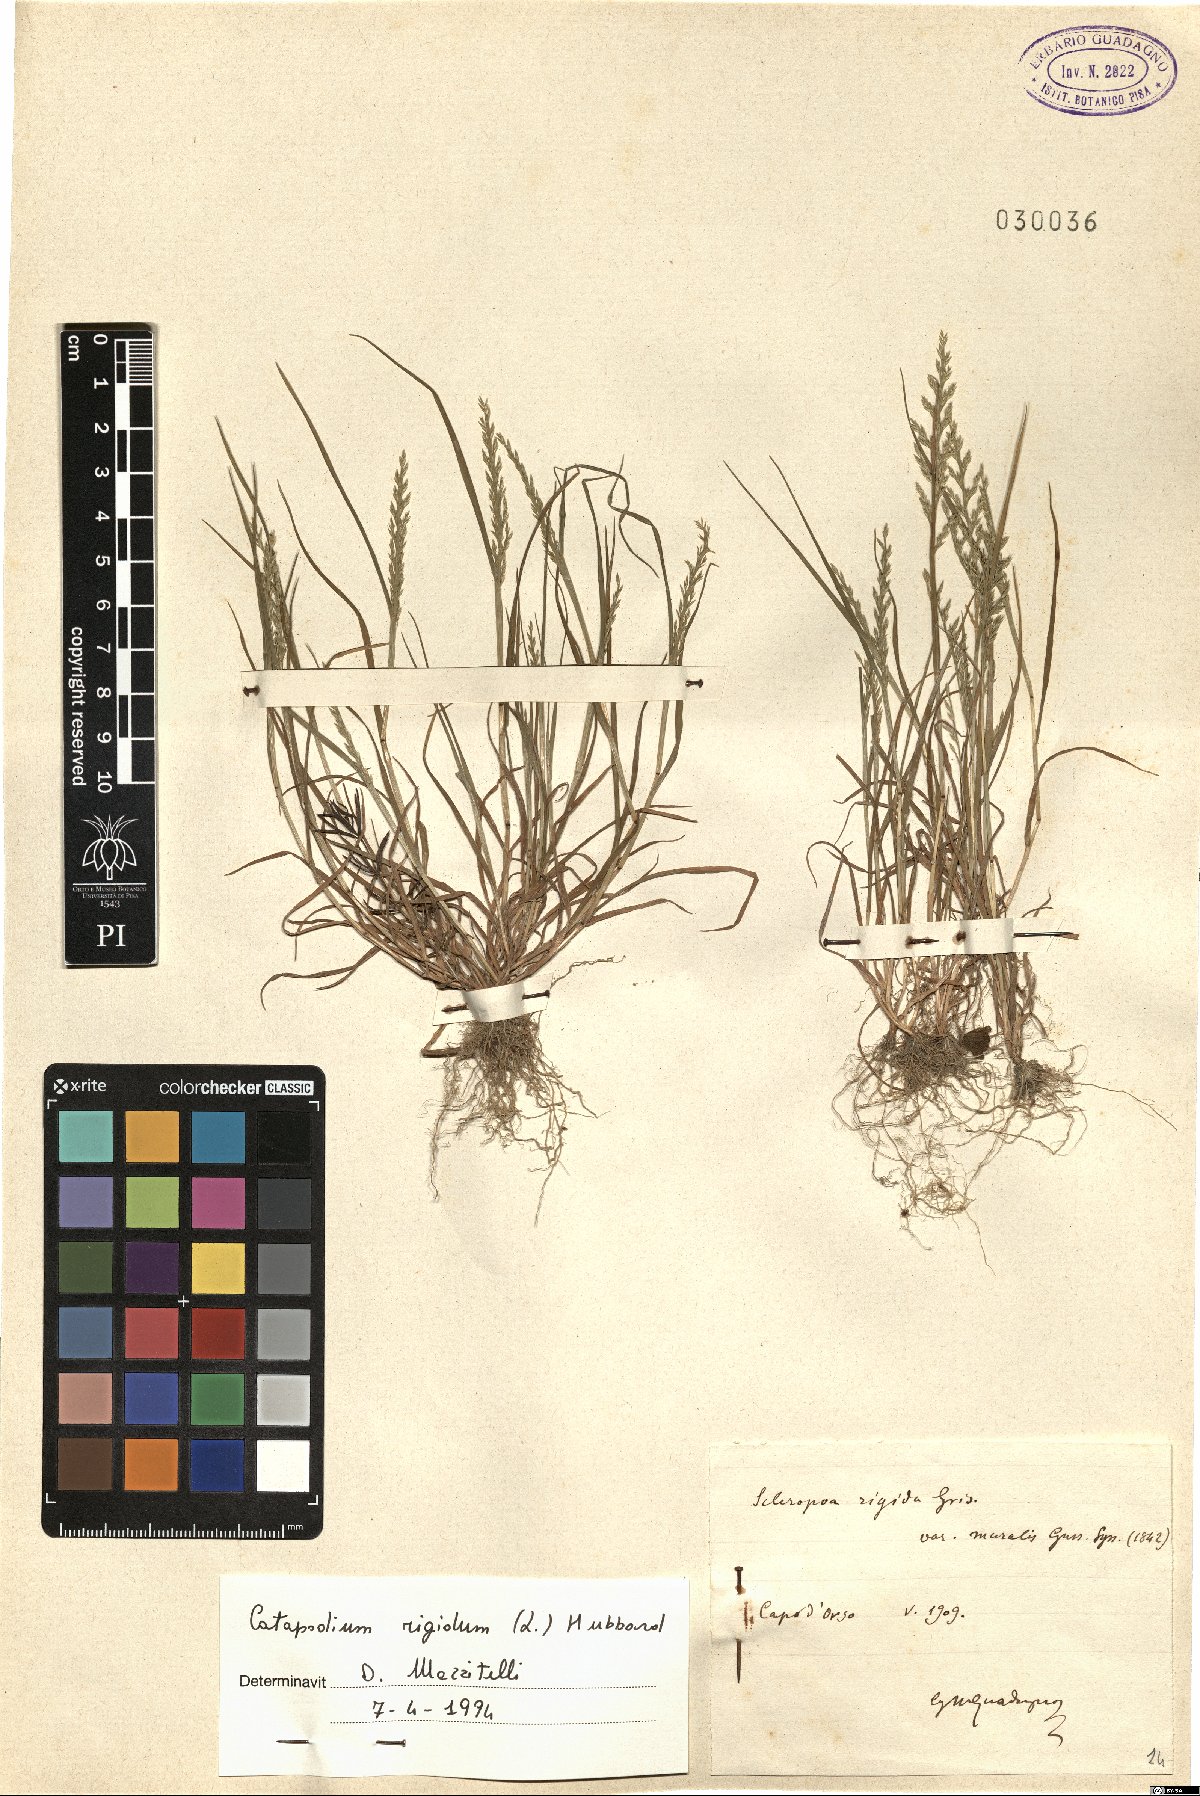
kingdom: Plantae
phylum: Tracheophyta
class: Liliopsida
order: Poales
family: Poaceae
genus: Catapodium
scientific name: Catapodium rigidum
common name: Fern-grass
